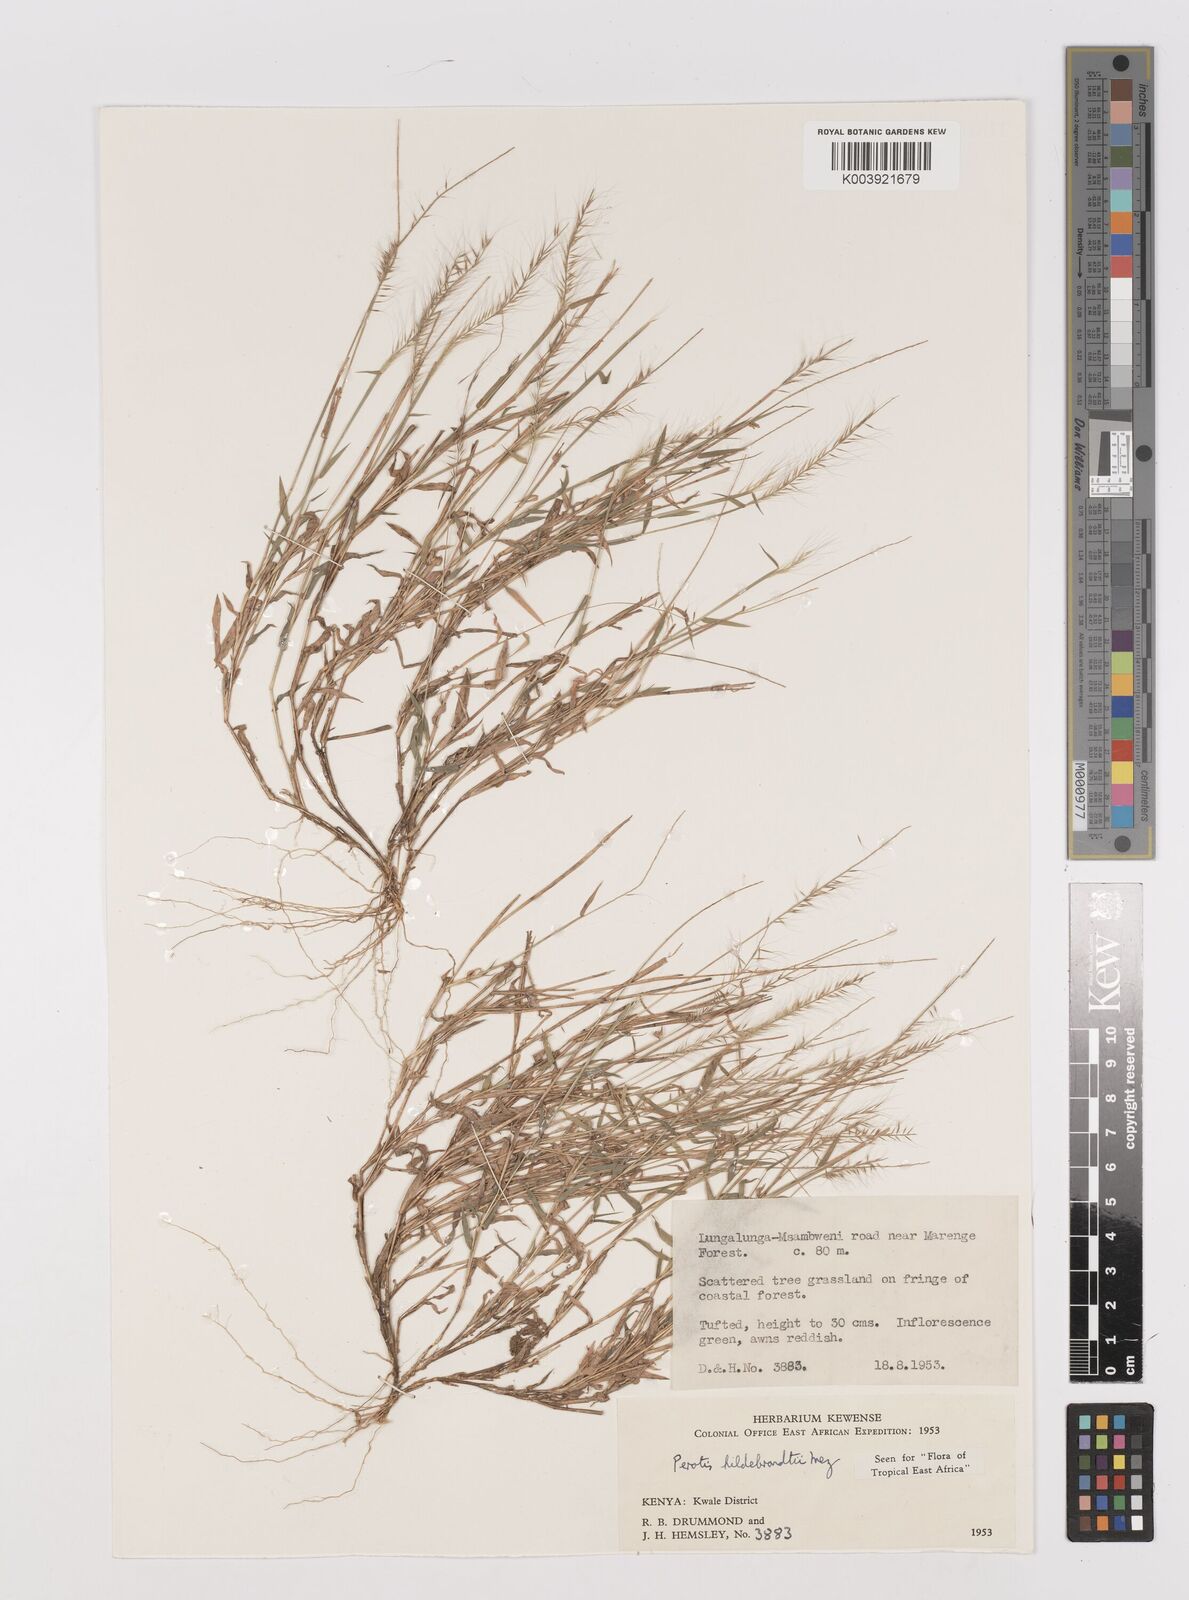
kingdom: Plantae
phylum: Tracheophyta
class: Liliopsida
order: Poales
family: Poaceae
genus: Perotis
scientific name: Perotis hildebrandtii
